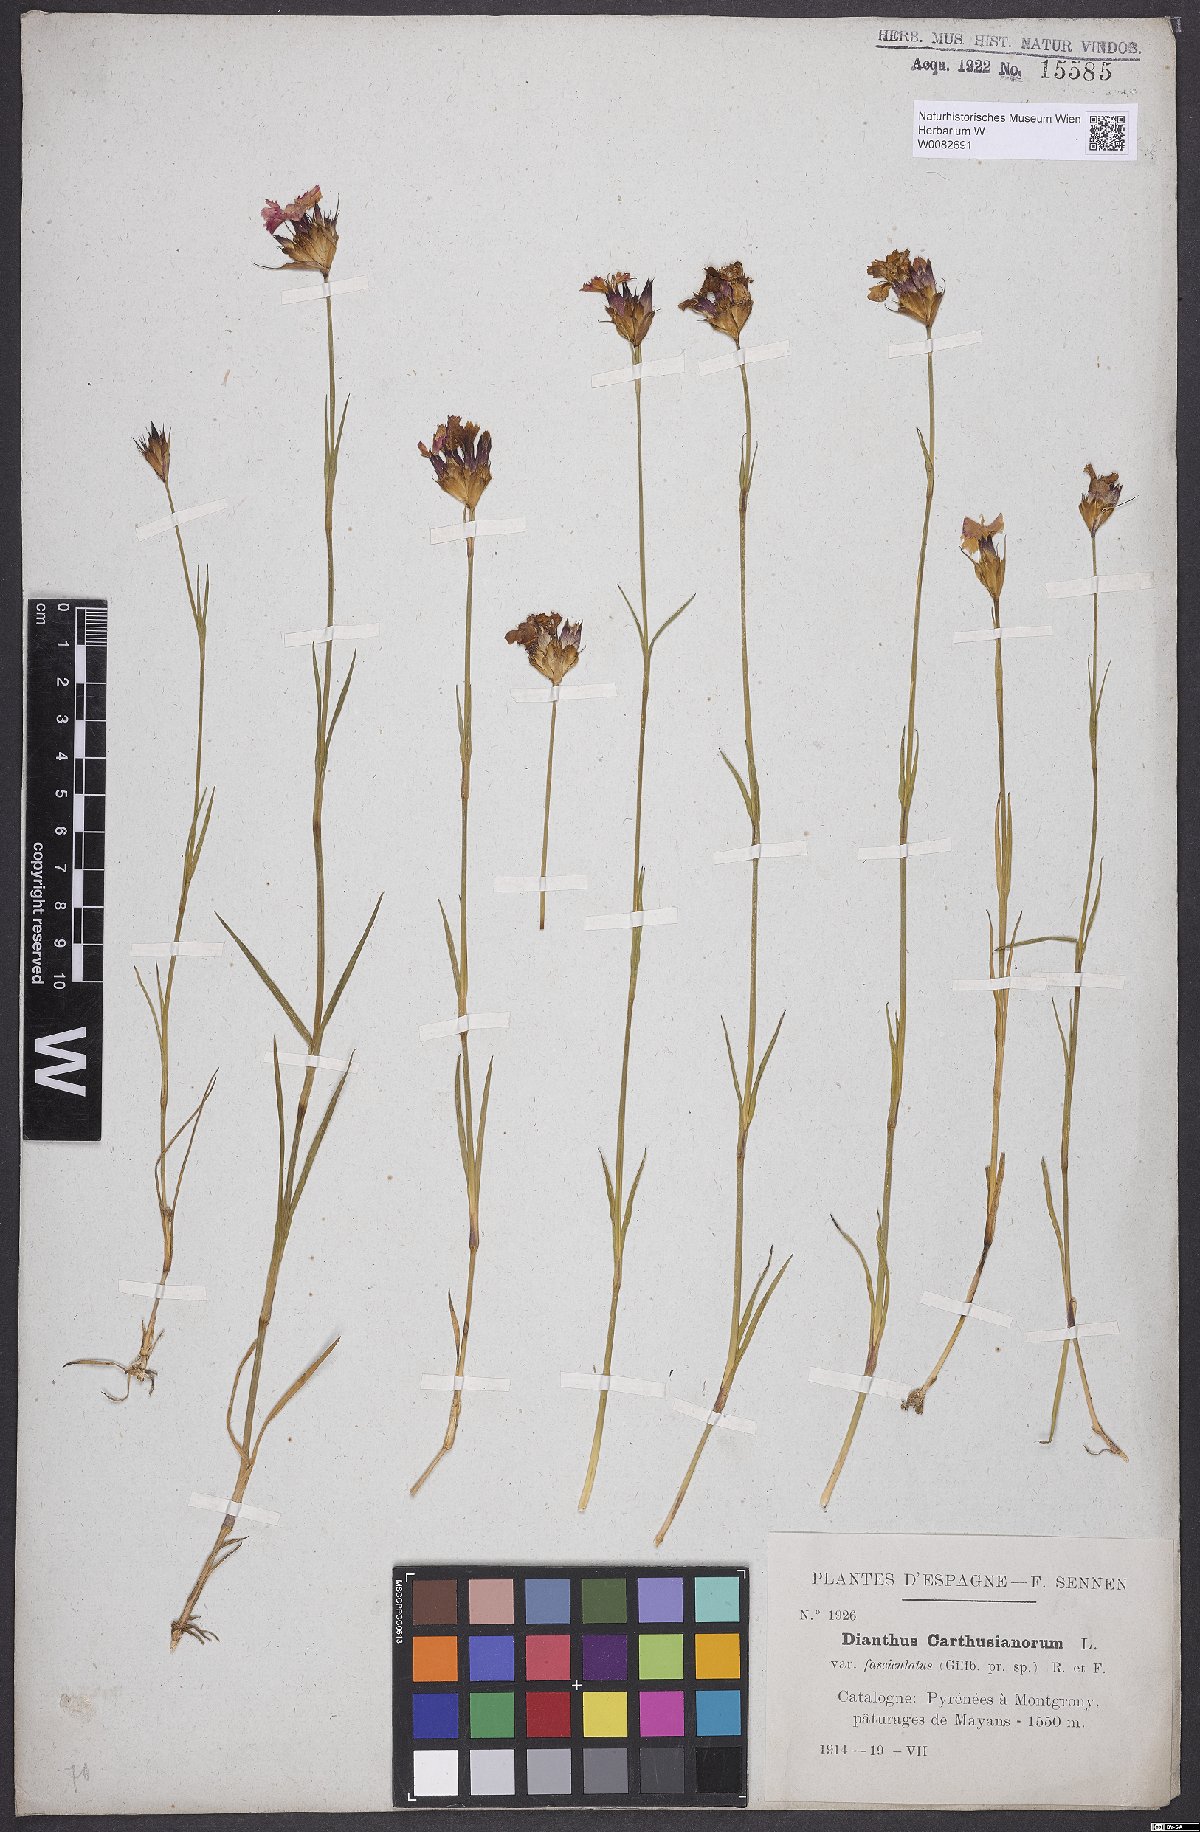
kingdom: Plantae
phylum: Tracheophyta
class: Magnoliopsida
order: Caryophyllales
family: Caryophyllaceae
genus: Dianthus
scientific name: Dianthus carthusianorum
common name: Carthusian pink
